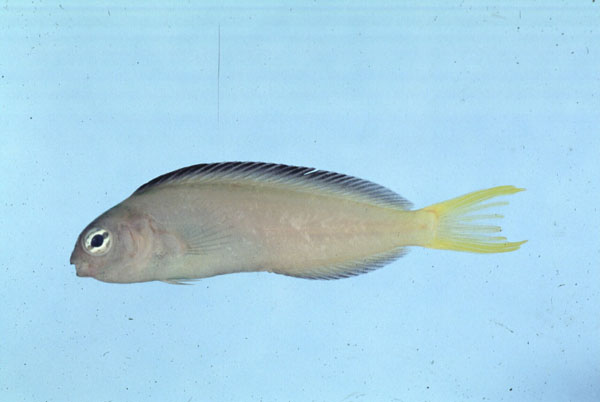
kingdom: Animalia
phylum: Chordata
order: Perciformes
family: Blenniidae
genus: Meiacanthus
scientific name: Meiacanthus mossambicus
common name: Mozambique fangblenny
